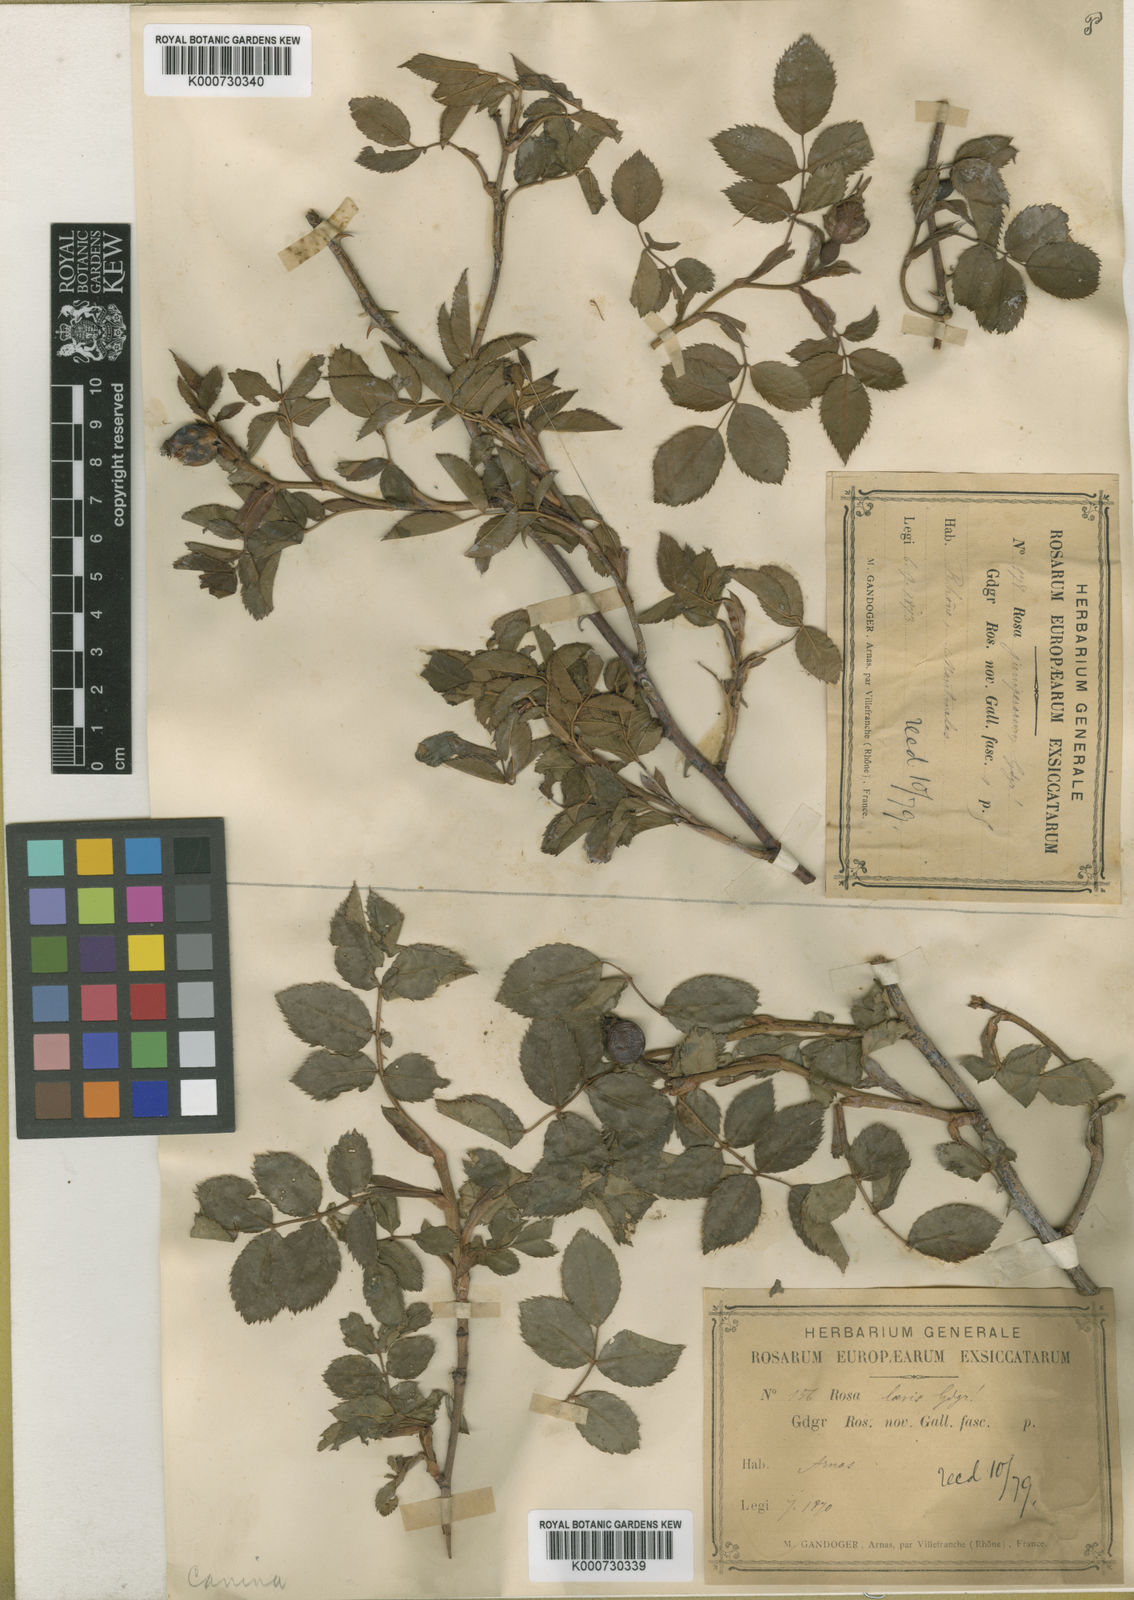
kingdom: Plantae
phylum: Tracheophyta
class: Magnoliopsida
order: Rosales
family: Rosaceae
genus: Rosa
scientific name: Rosa canina
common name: Dog rose
